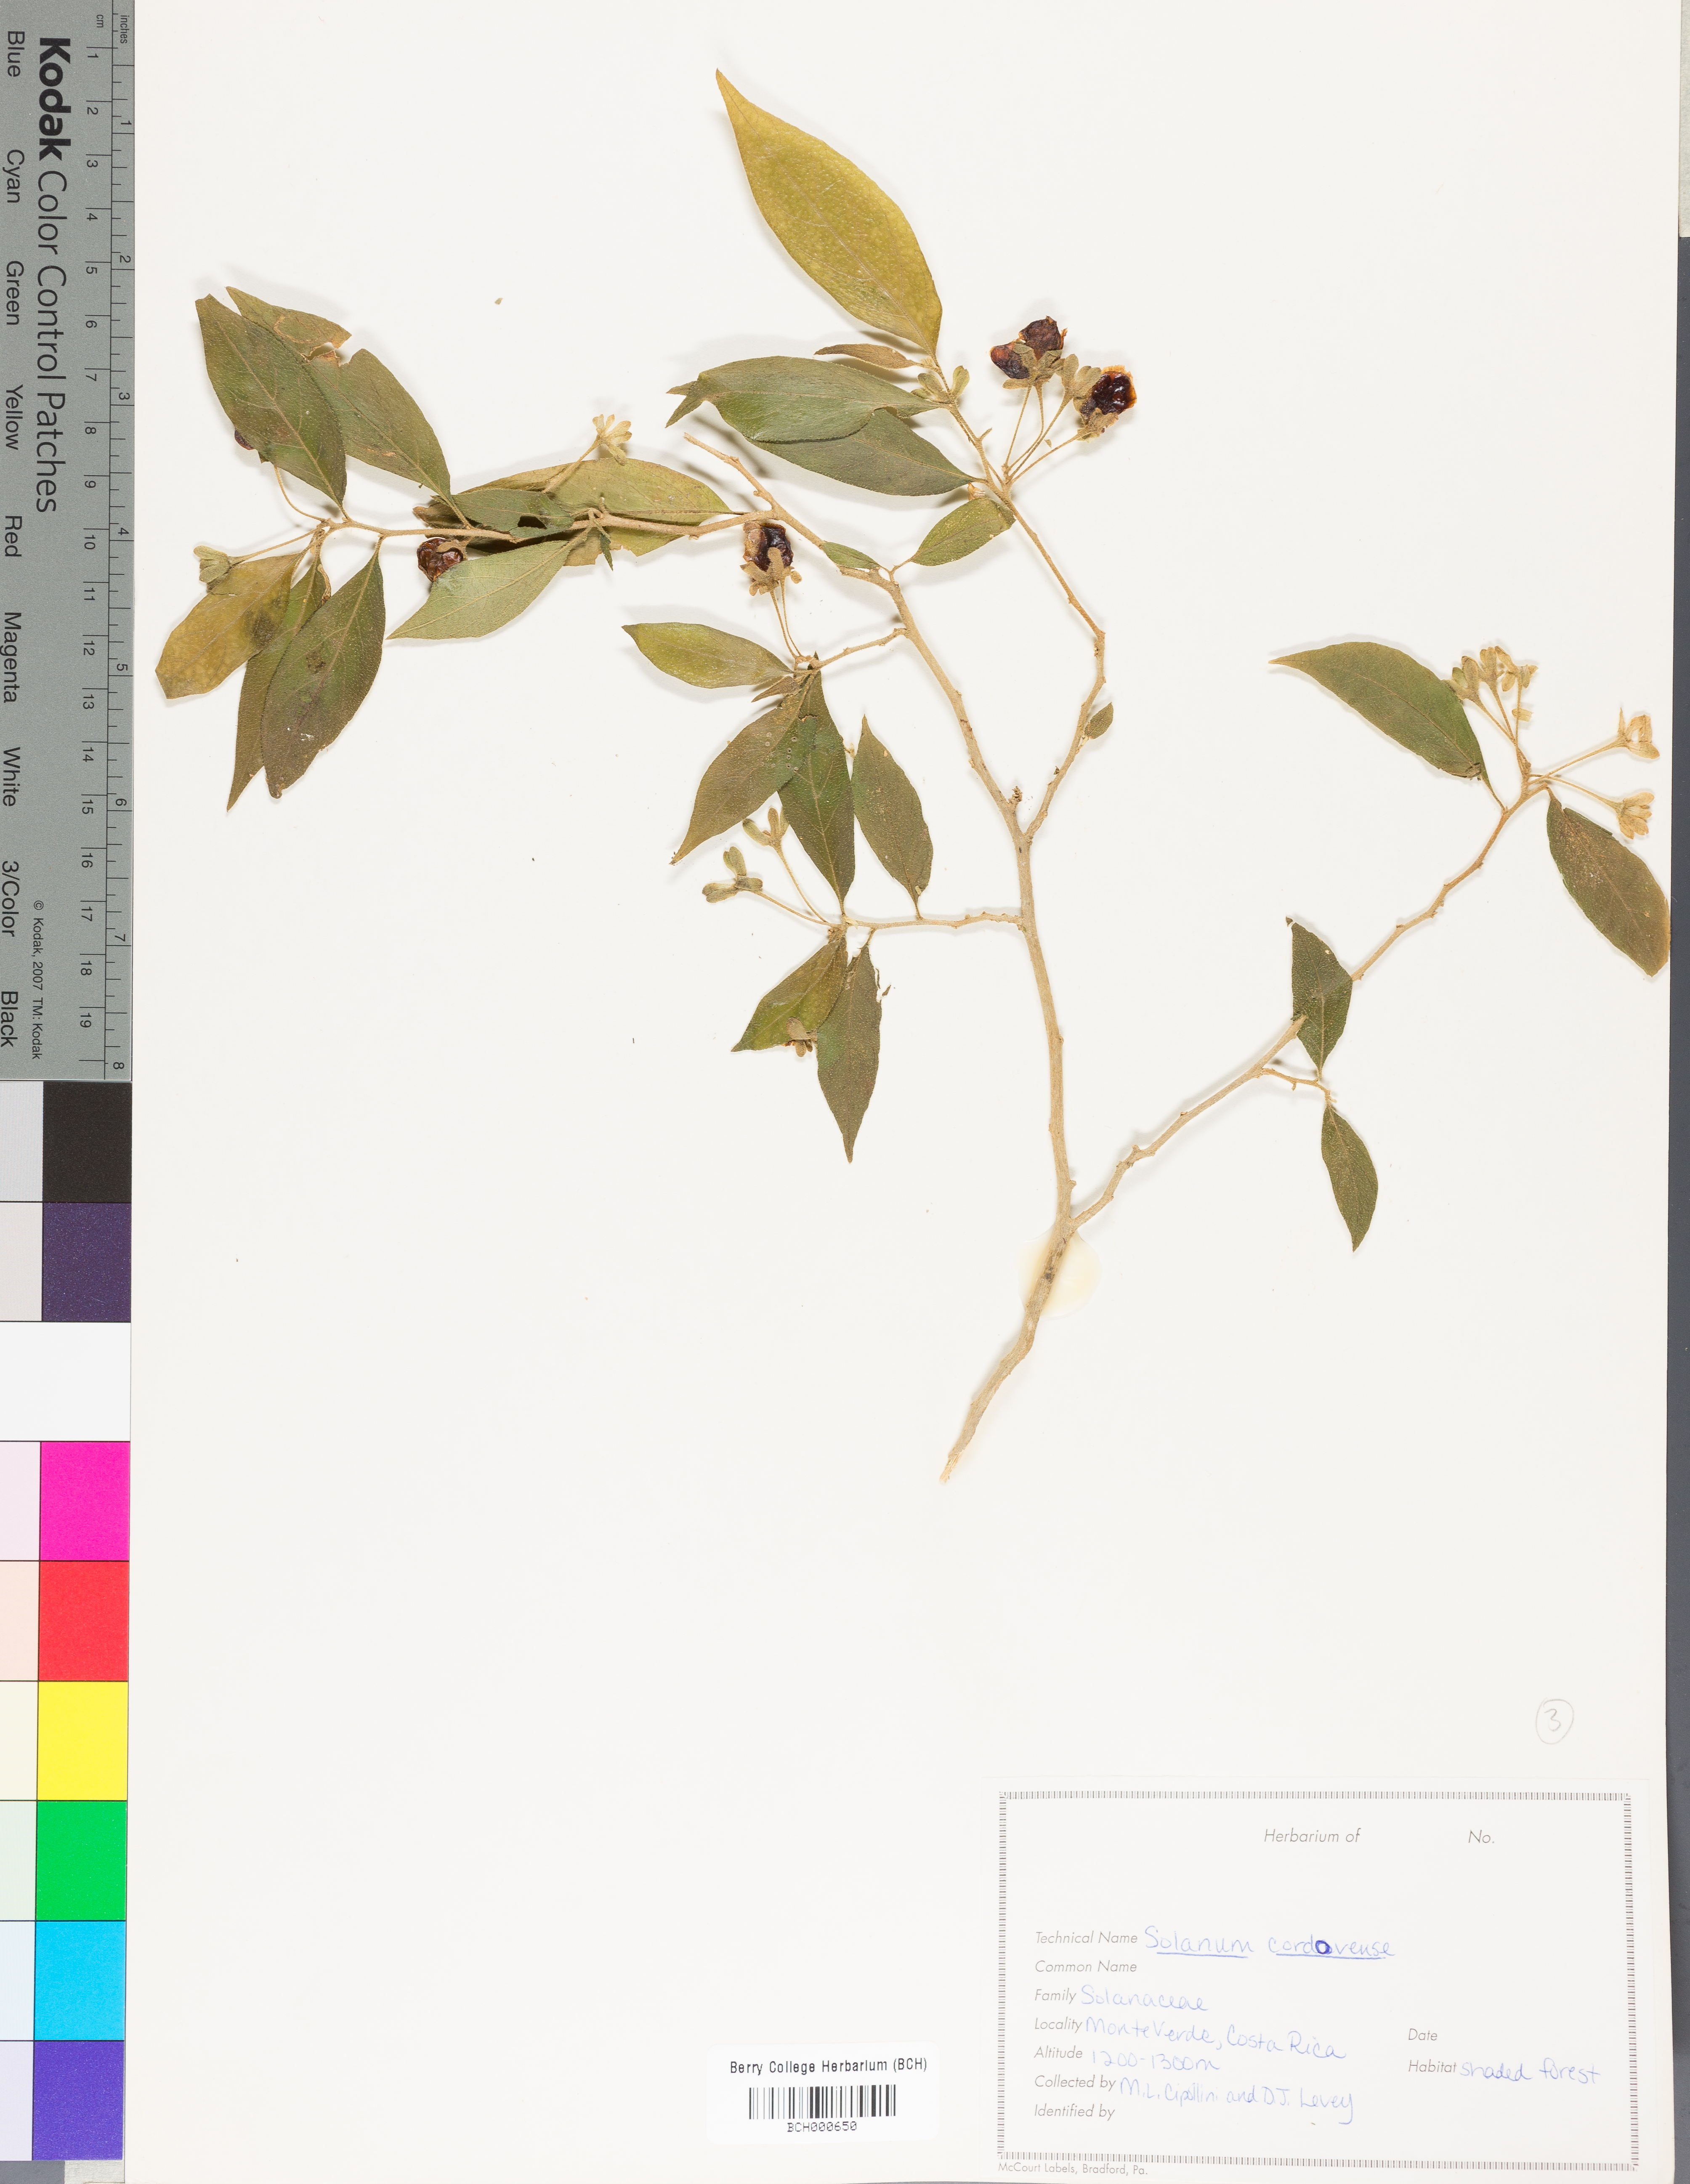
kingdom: Plantae
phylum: Tracheophyta
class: Magnoliopsida
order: Solanales
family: Solanaceae
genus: Solanum
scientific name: Solanum cordovense
